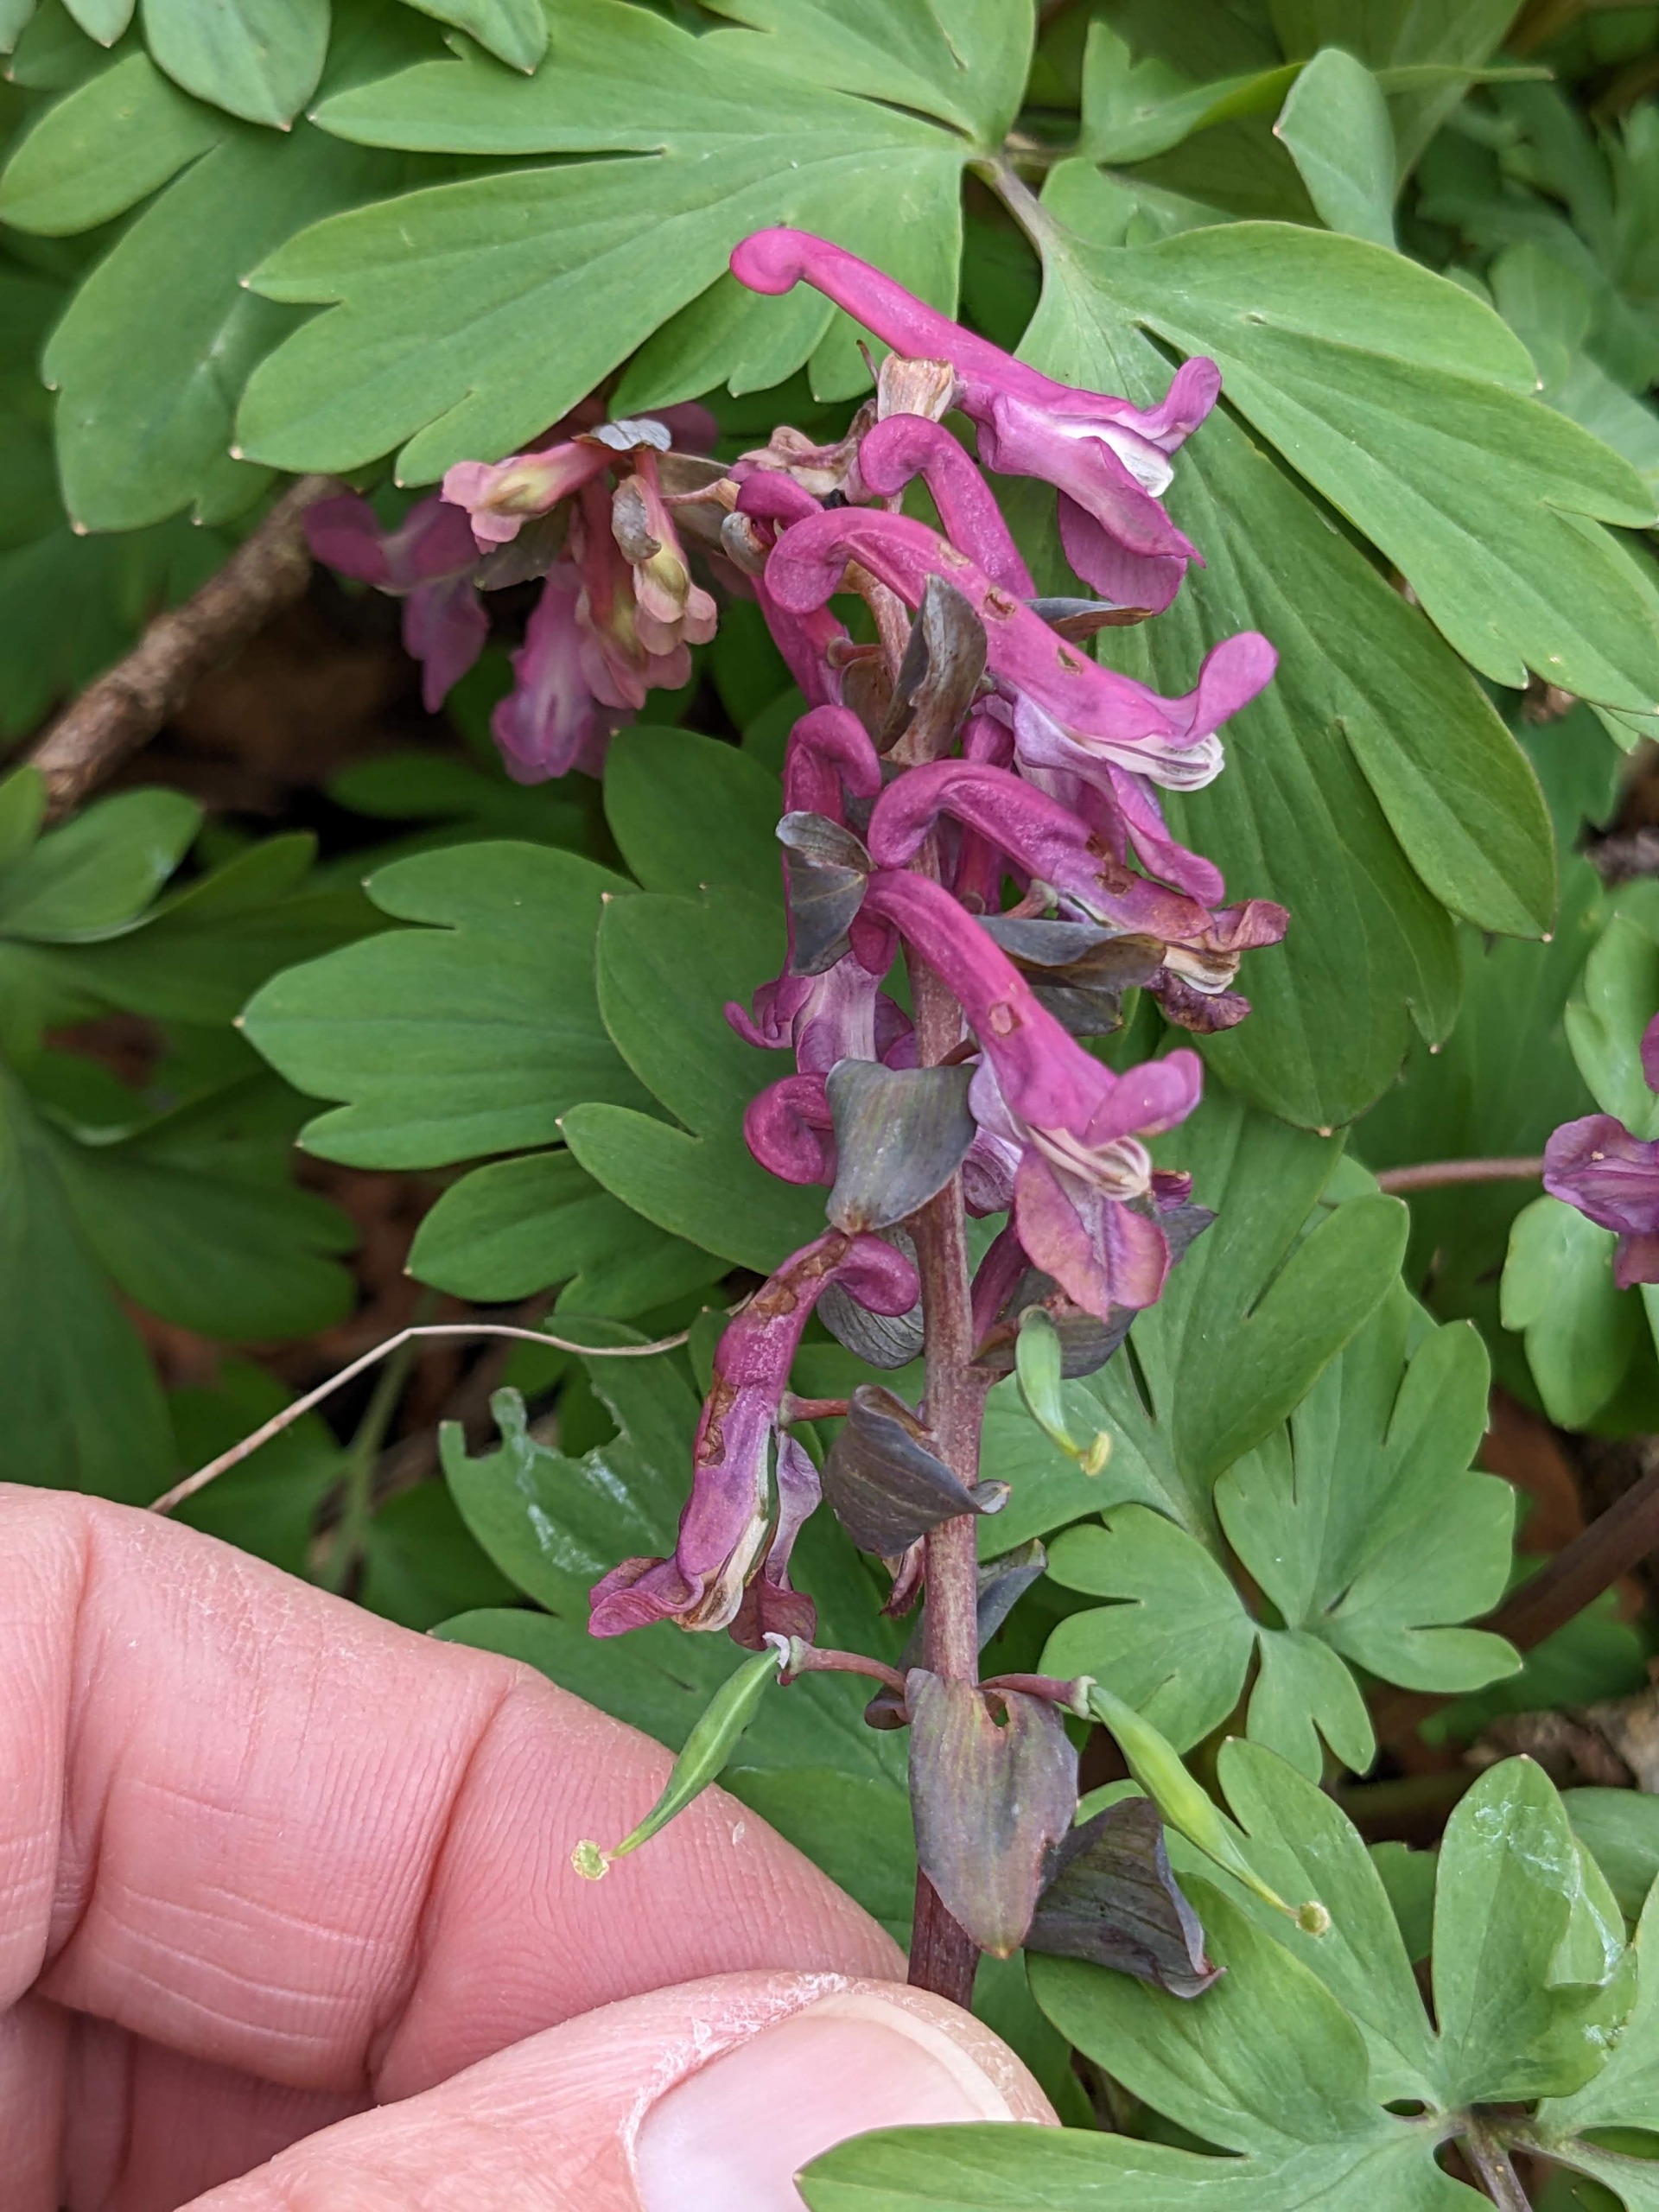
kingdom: Plantae
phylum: Tracheophyta
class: Magnoliopsida
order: Ranunculales
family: Papaveraceae
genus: Corydalis
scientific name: Corydalis cava
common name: Hulrodet lærkespore
